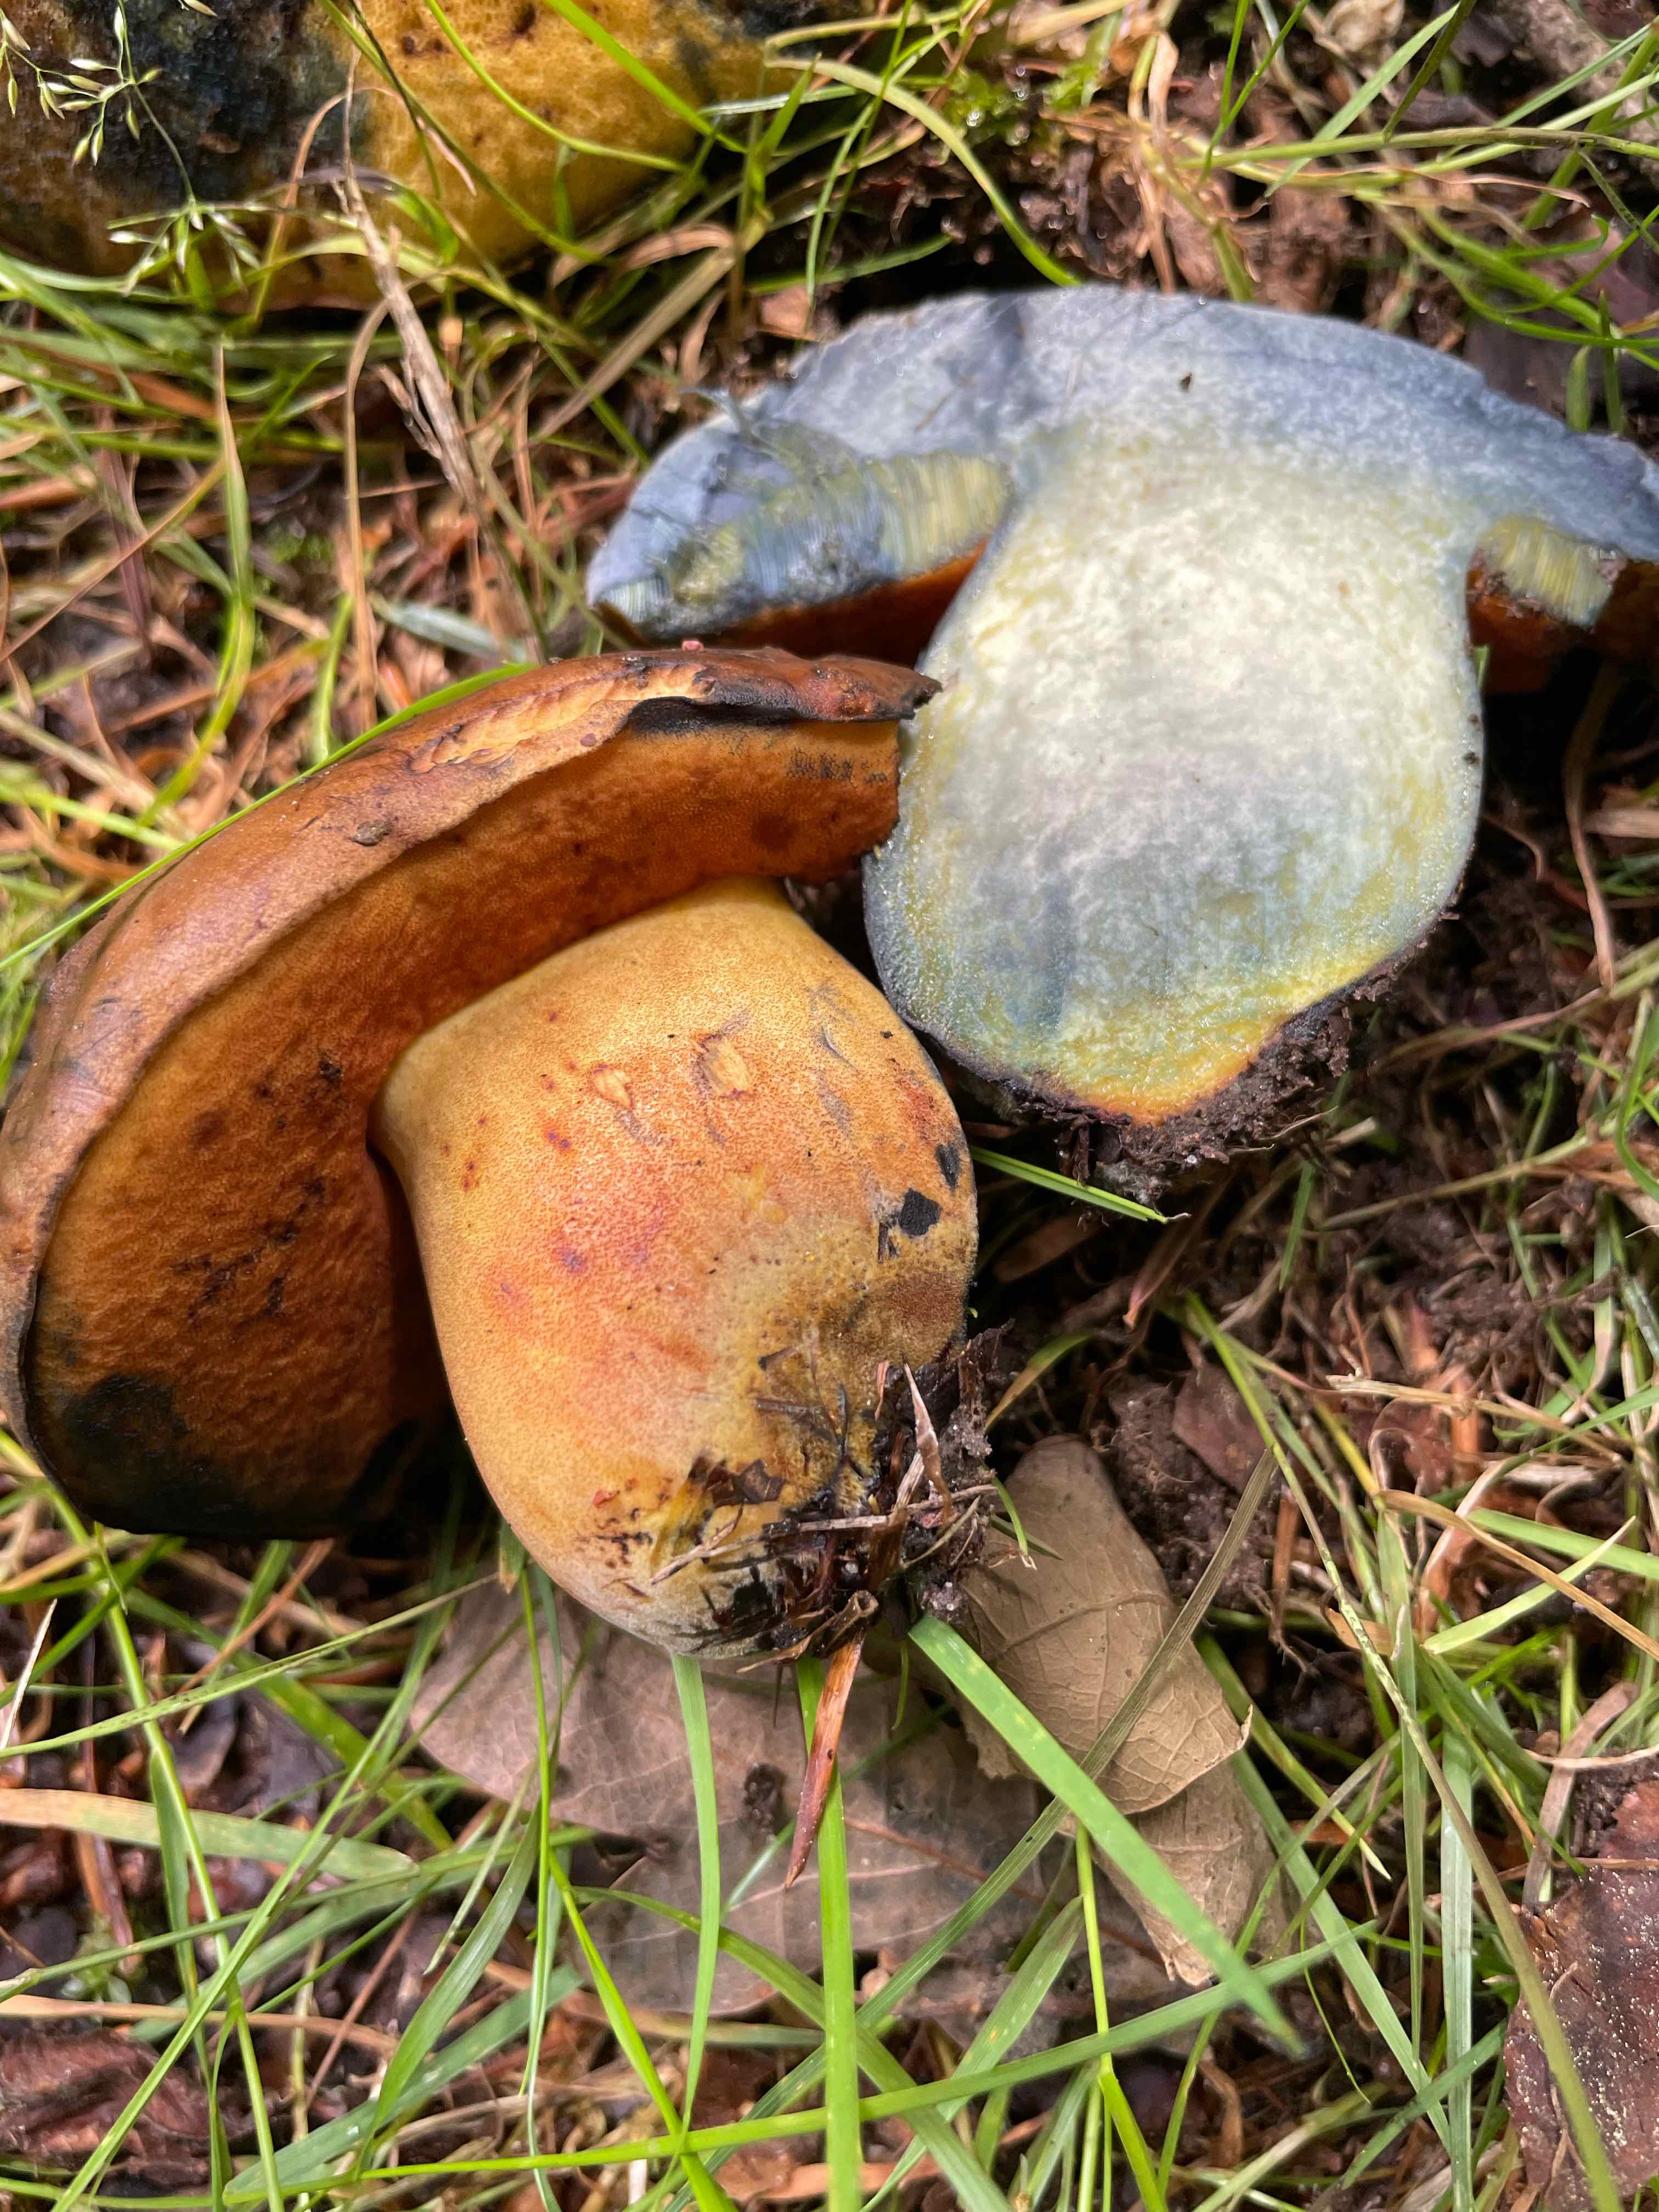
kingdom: Fungi
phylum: Basidiomycota
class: Agaricomycetes
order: Boletales
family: Boletaceae
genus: Neoboletus
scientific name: Neoboletus xanthopus
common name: finprikket indigorørhat
